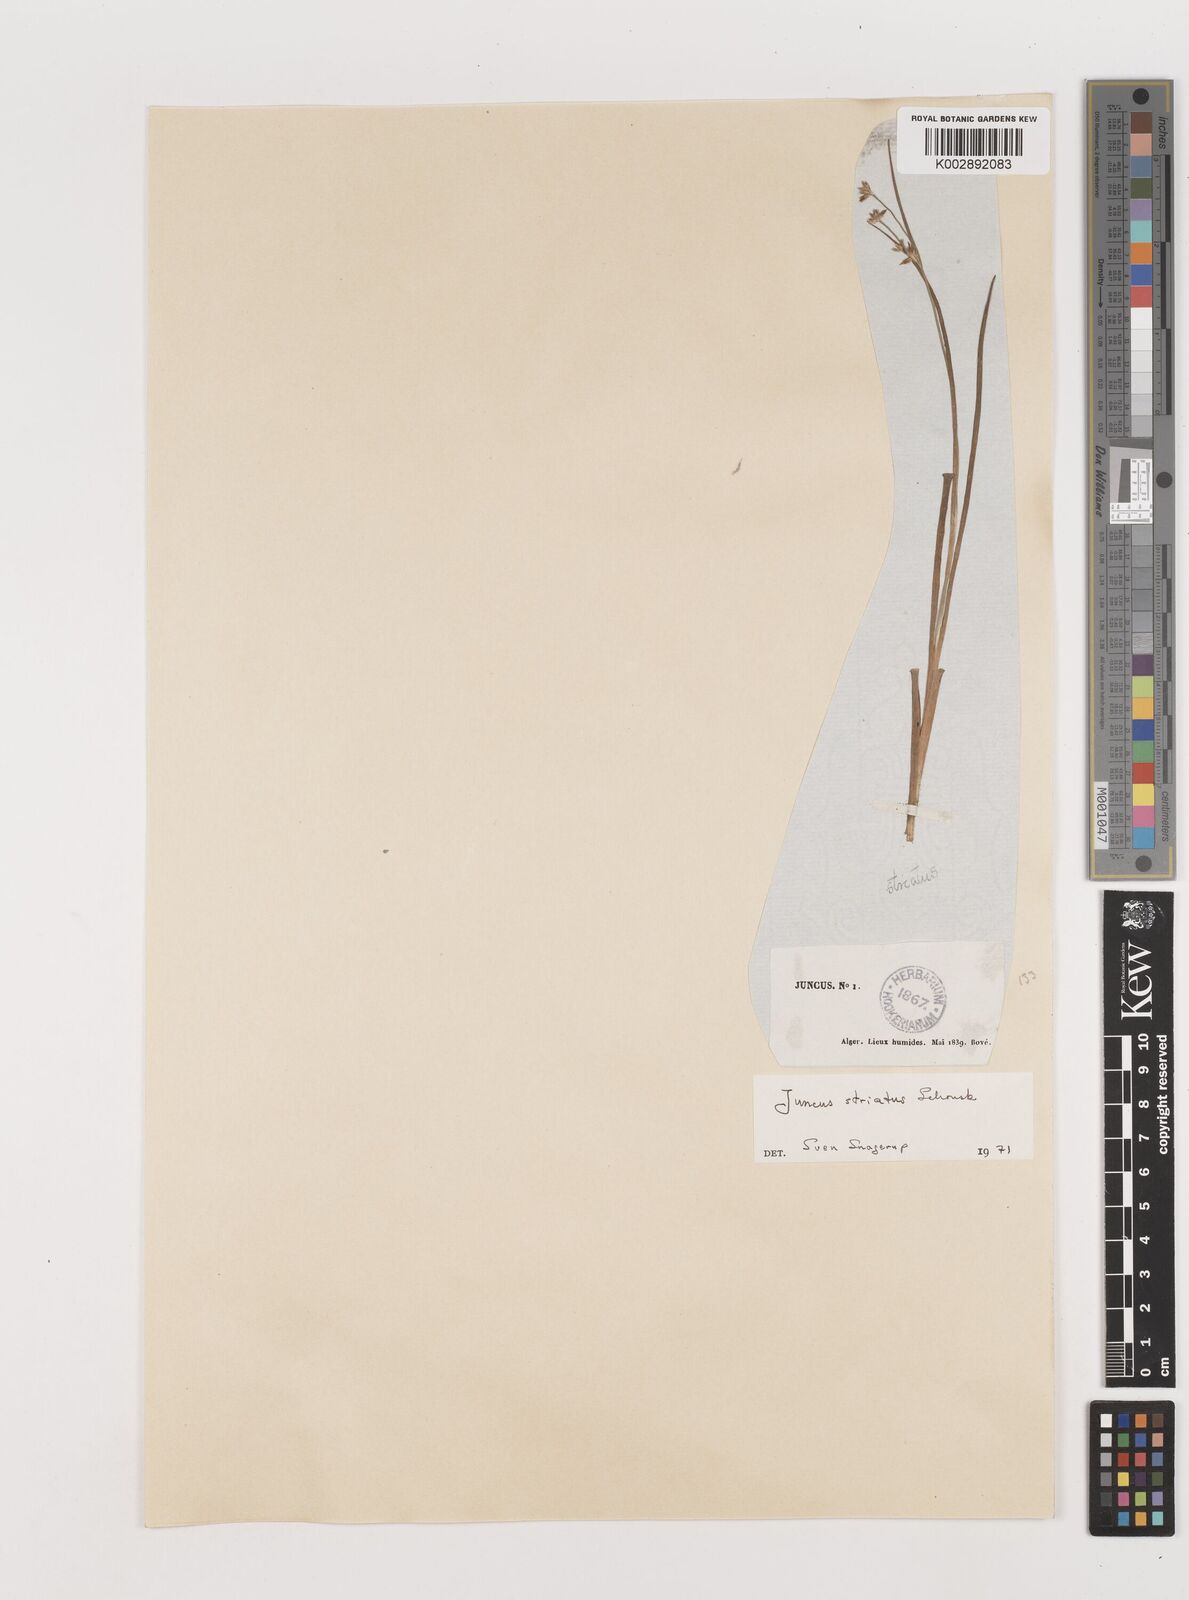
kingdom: Plantae
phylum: Tracheophyta
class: Liliopsida
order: Poales
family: Juncaceae
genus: Juncus
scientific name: Juncus striatus
